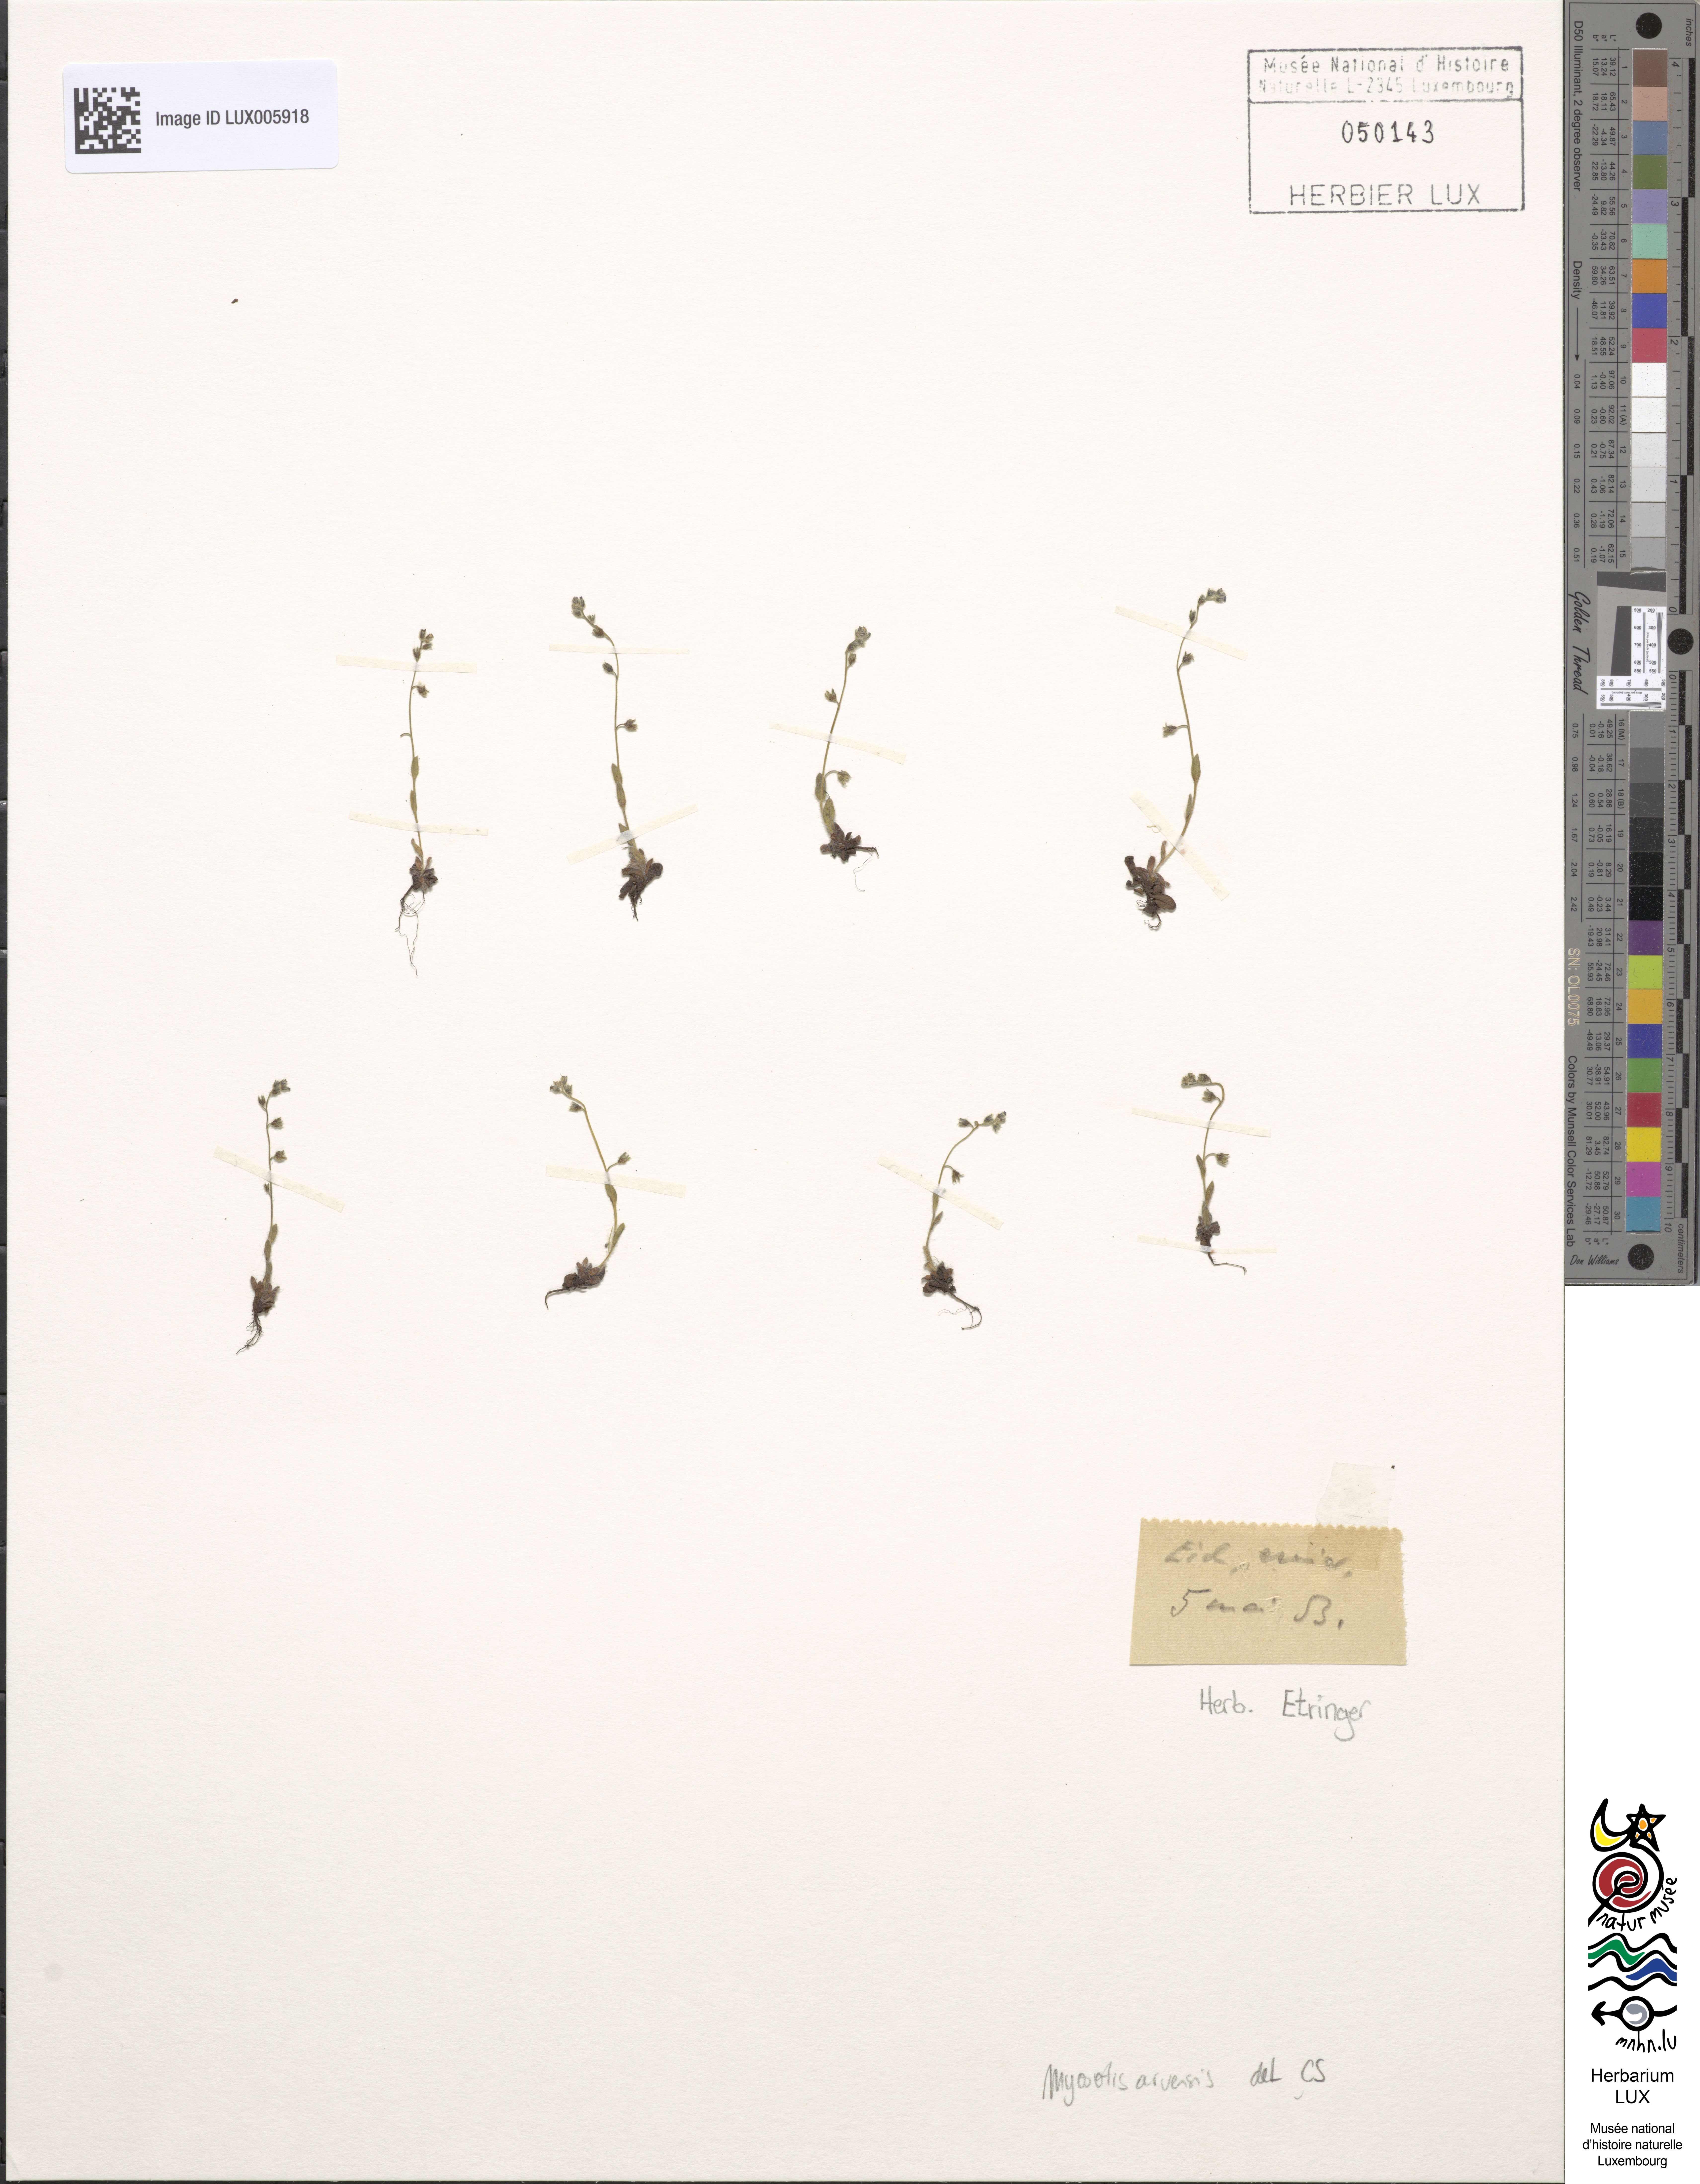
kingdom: Plantae
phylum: Tracheophyta
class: Magnoliopsida
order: Boraginales
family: Boraginaceae
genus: Myosotis
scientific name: Myosotis arvensis
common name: Field forget-me-not
